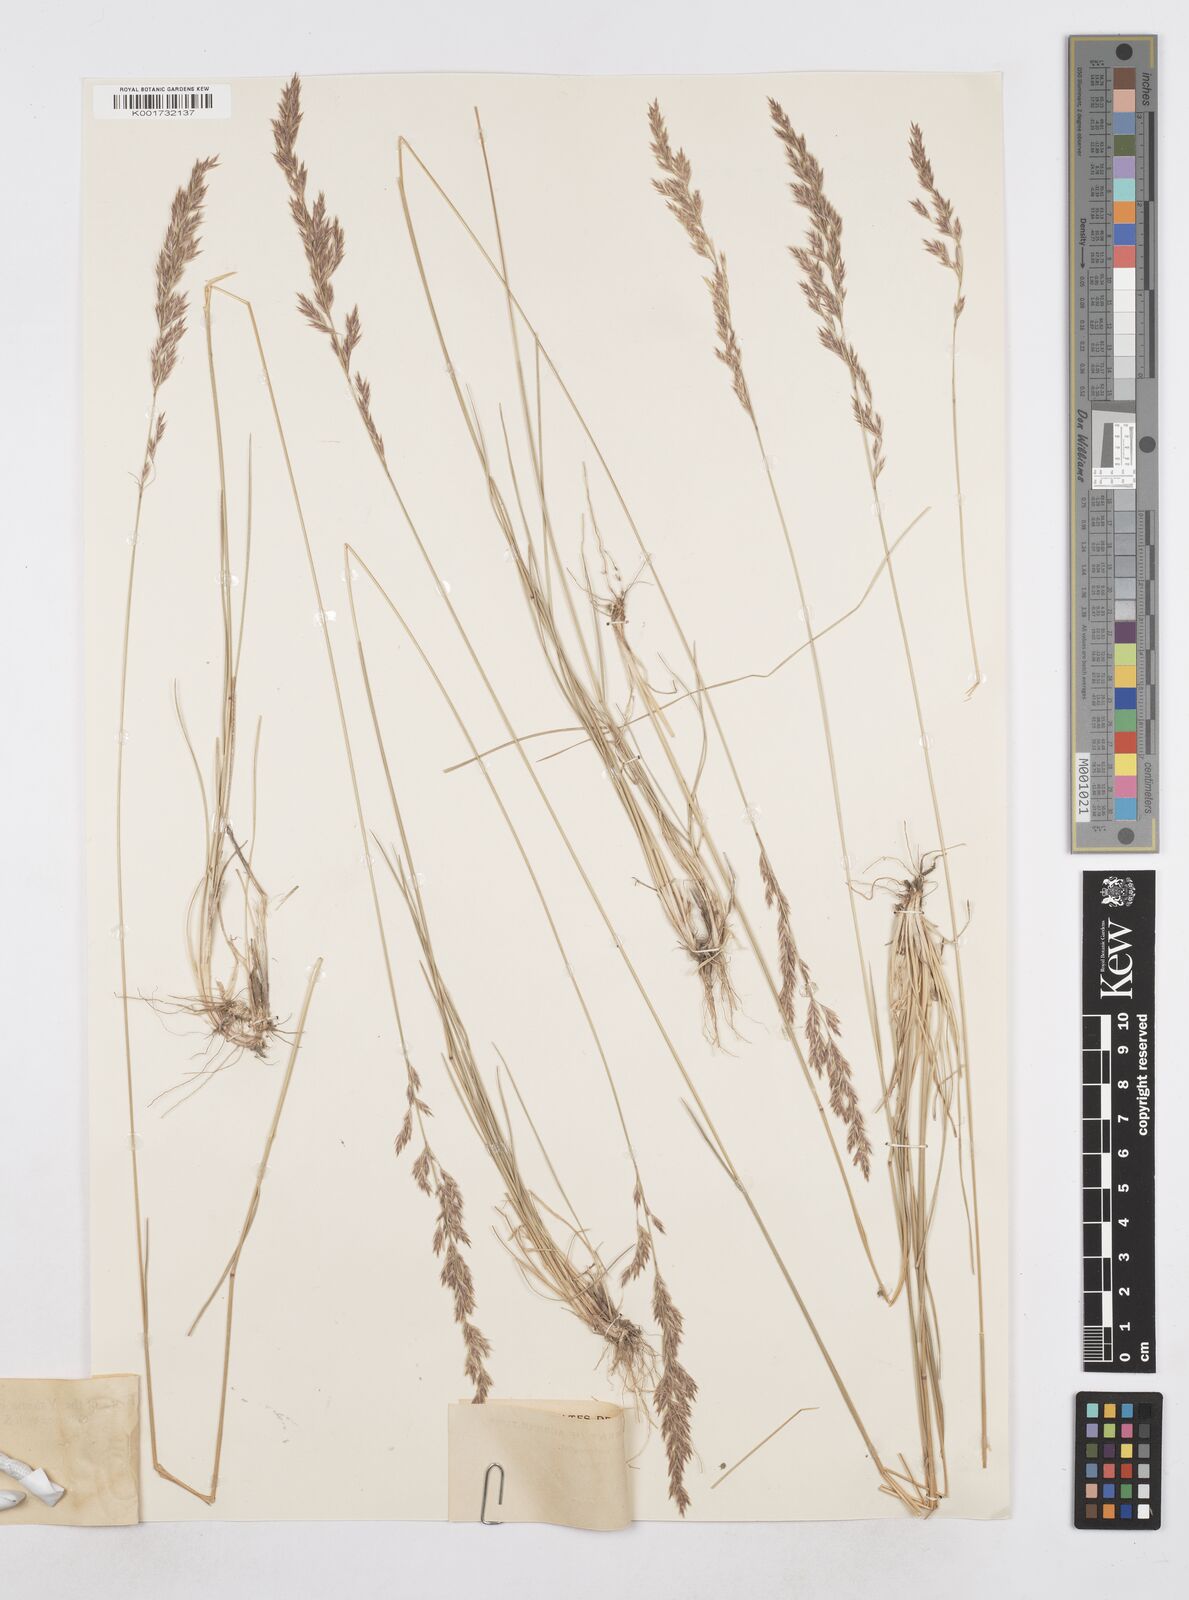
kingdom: Plantae
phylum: Tracheophyta
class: Liliopsida
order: Poales
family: Poaceae
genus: Poa
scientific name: Poa secunda
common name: Sandberg bluegrass
